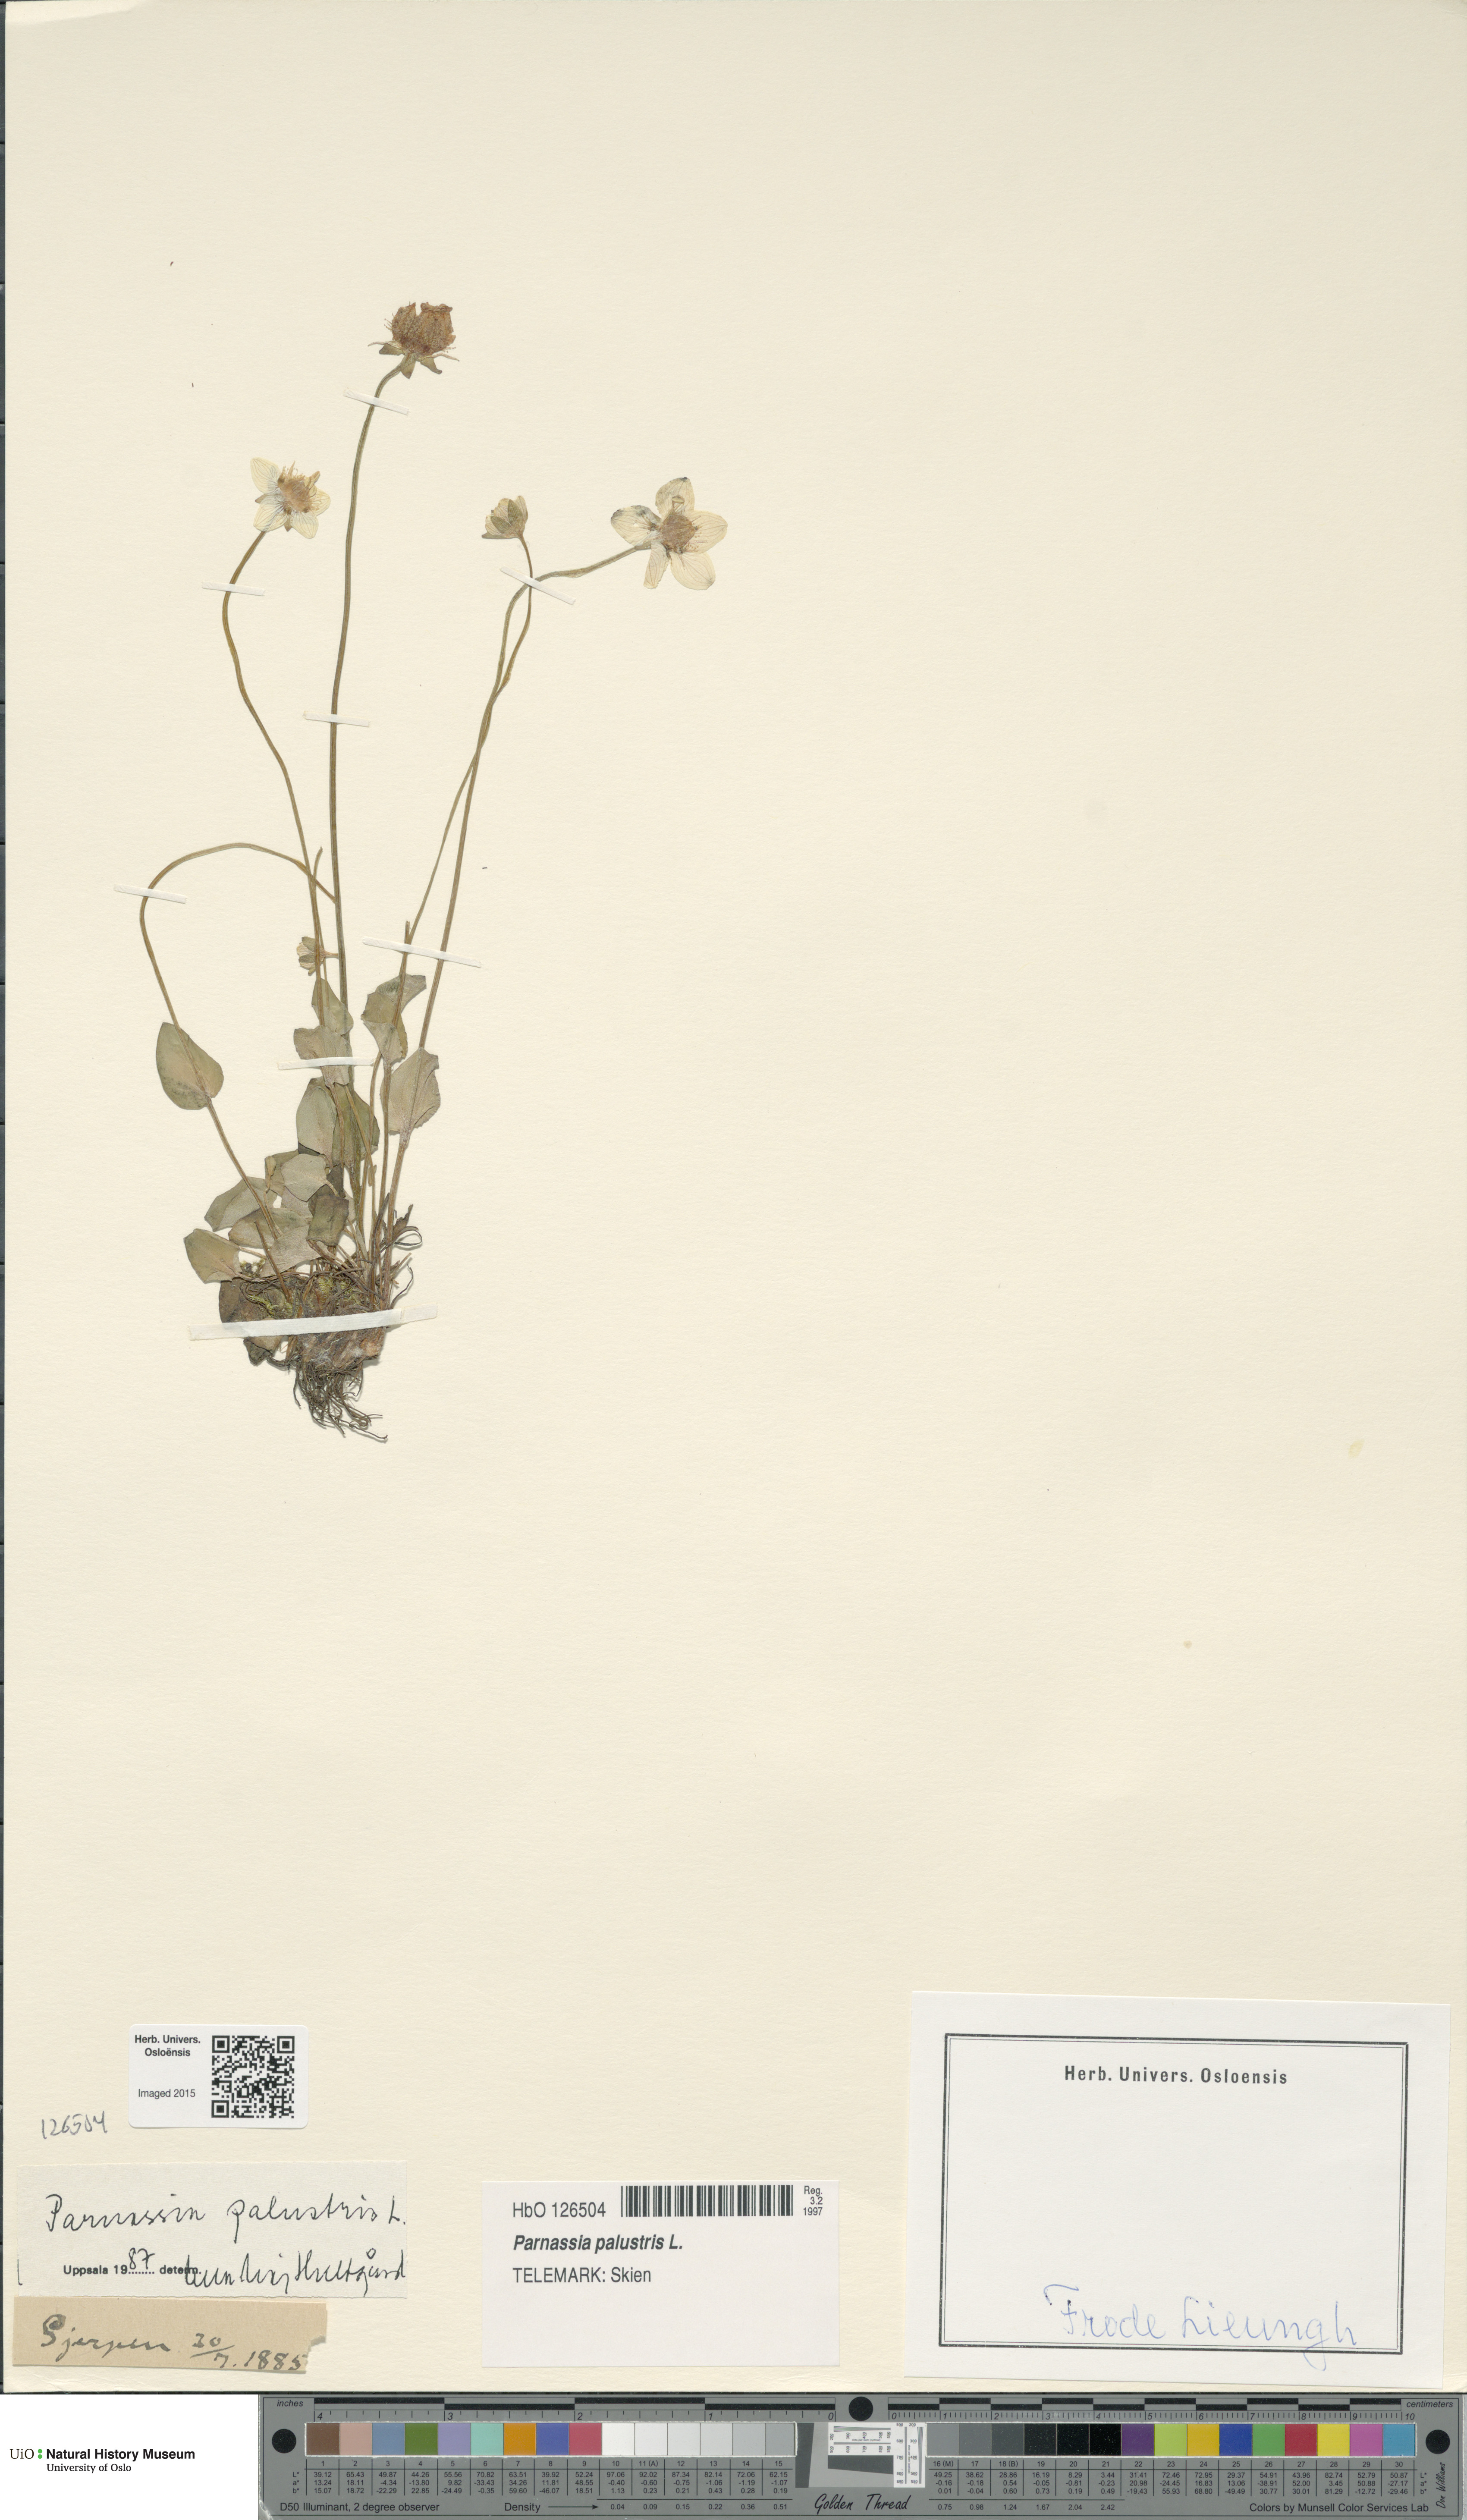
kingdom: Plantae
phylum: Tracheophyta
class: Magnoliopsida
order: Celastrales
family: Parnassiaceae
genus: Parnassia
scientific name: Parnassia palustris
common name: Grass-of-parnassus
